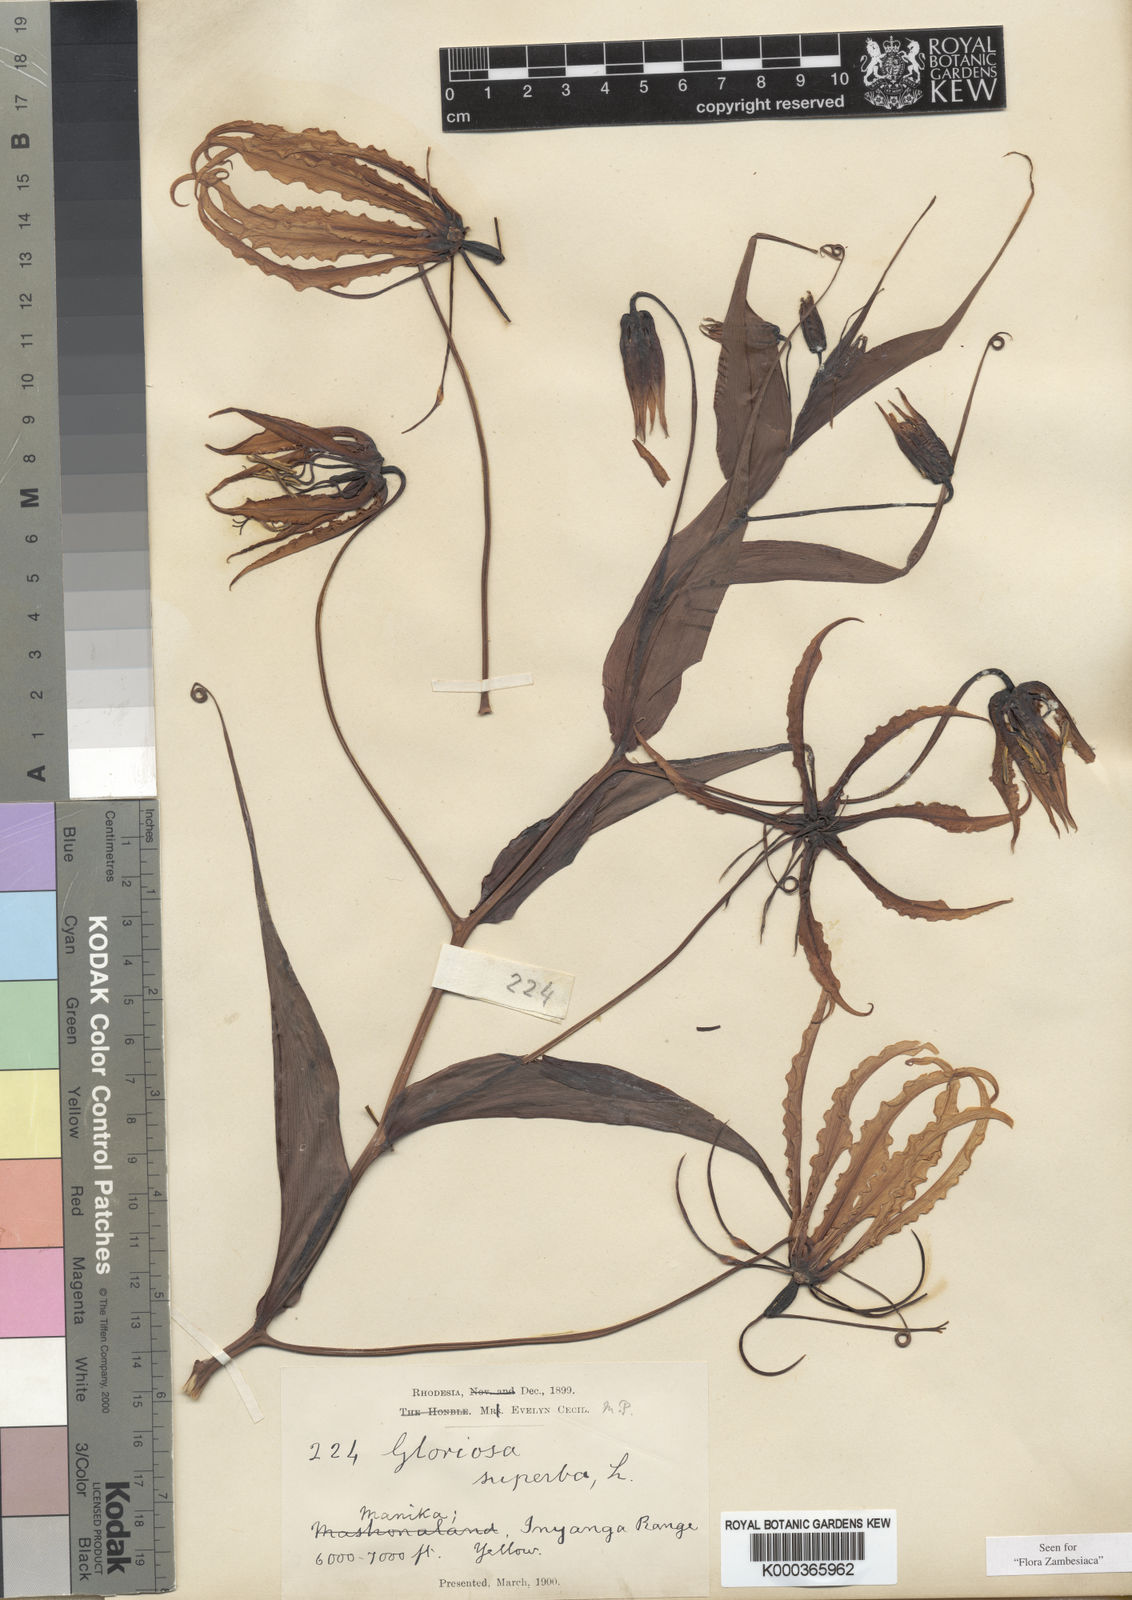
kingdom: Plantae
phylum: Tracheophyta
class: Liliopsida
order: Liliales
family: Colchicaceae
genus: Gloriosa
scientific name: Gloriosa simplex
